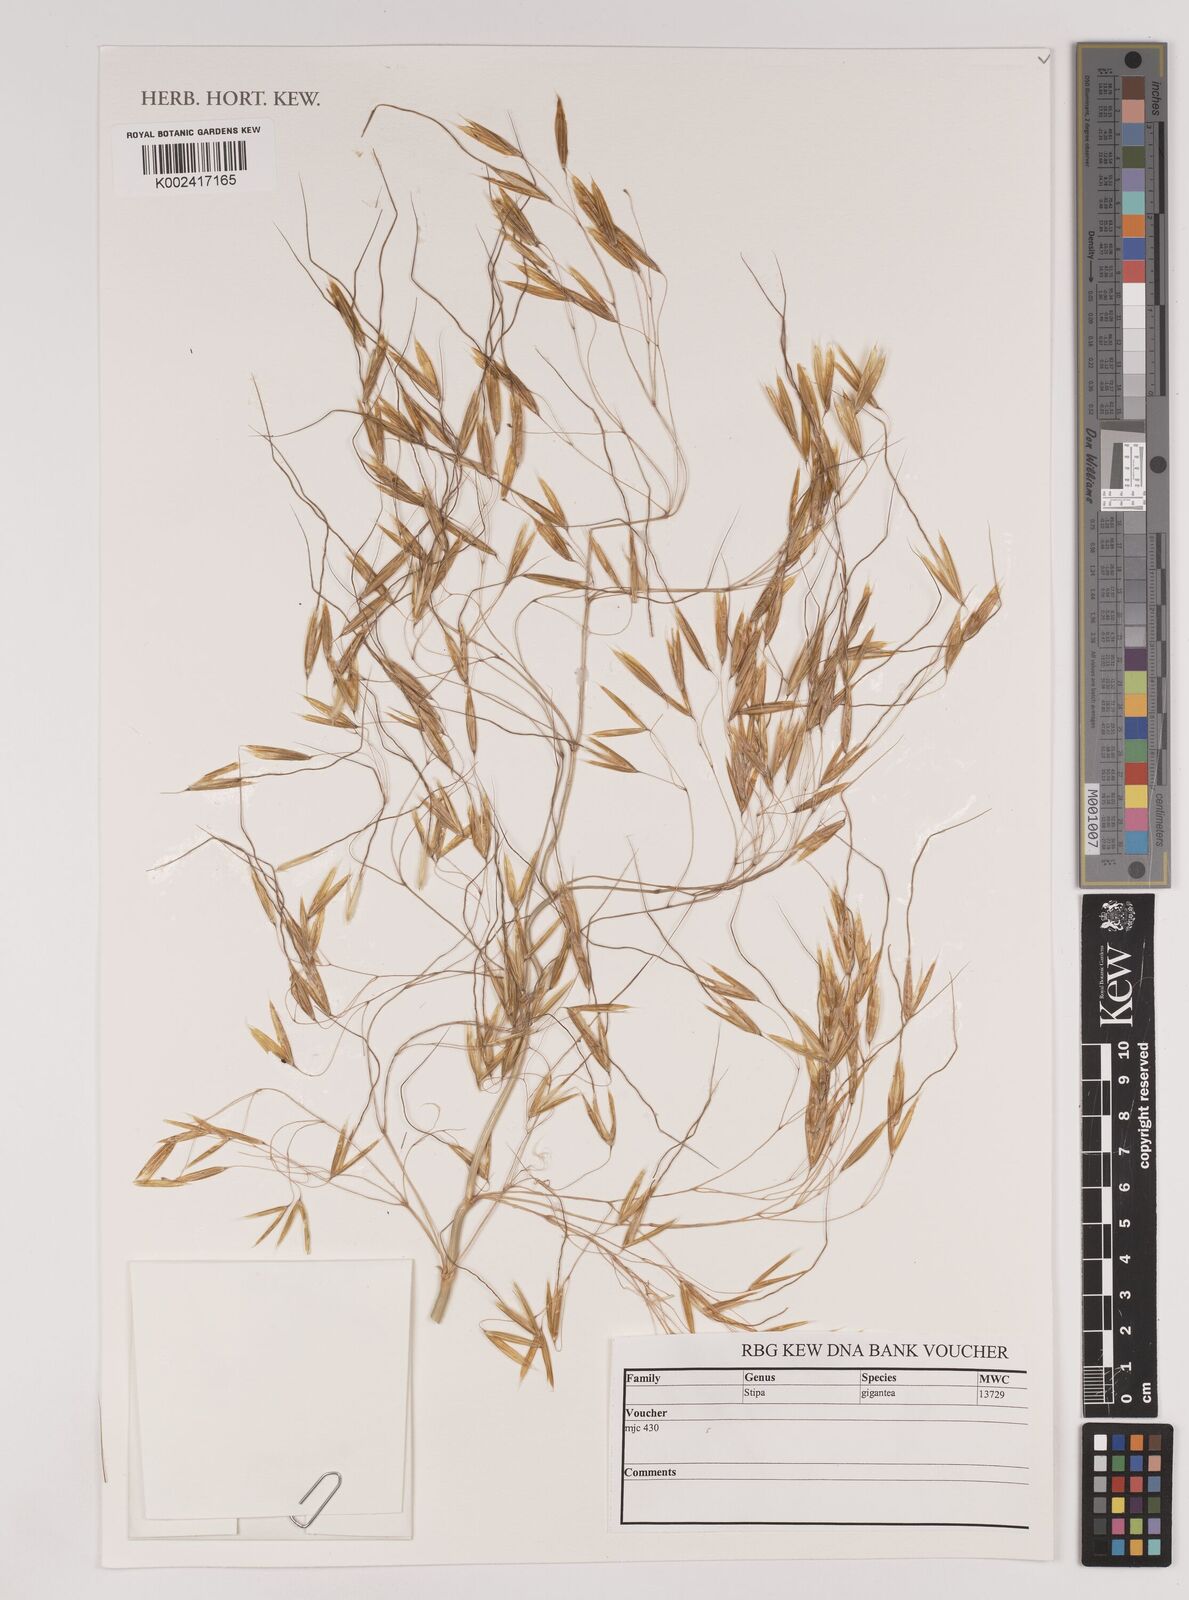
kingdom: Plantae
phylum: Tracheophyta
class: Liliopsida
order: Poales
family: Poaceae
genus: Stipa
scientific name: Stipa lagascae
